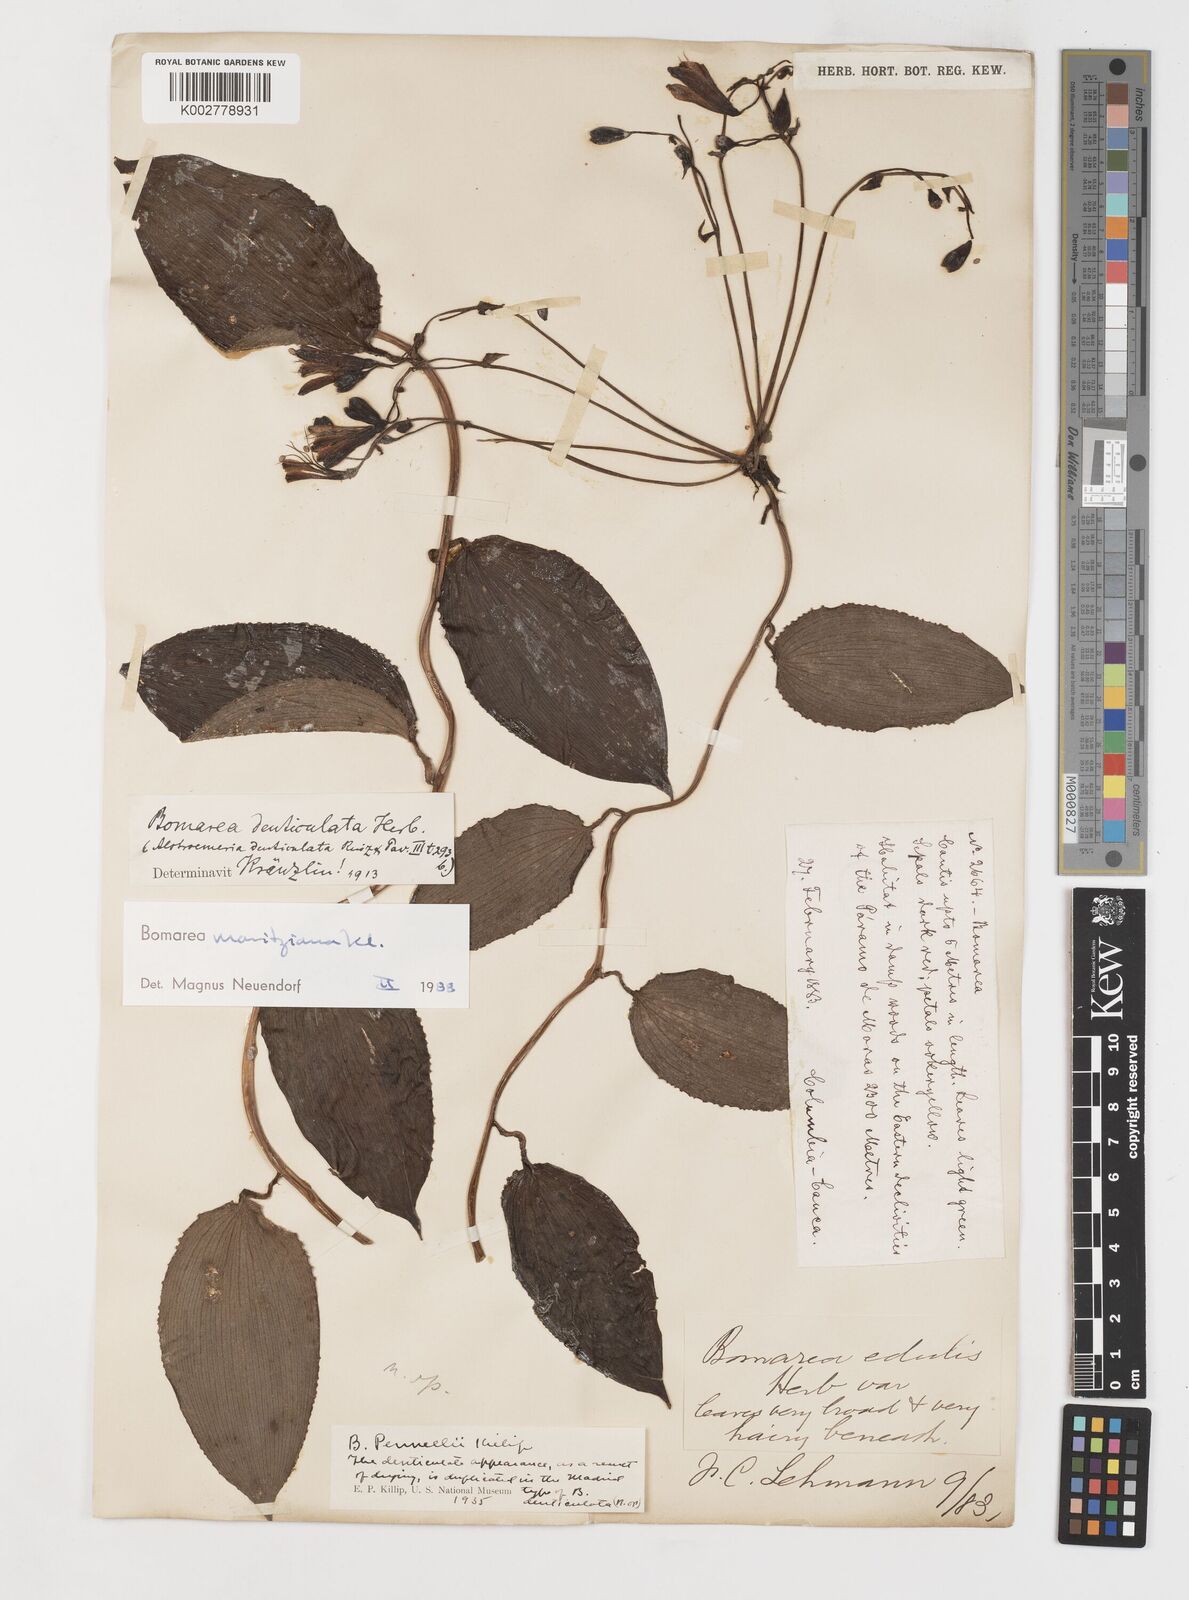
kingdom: Plantae
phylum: Tracheophyta
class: Liliopsida
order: Liliales
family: Alstroemeriaceae
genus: Bomarea
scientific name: Bomarea moritziana
